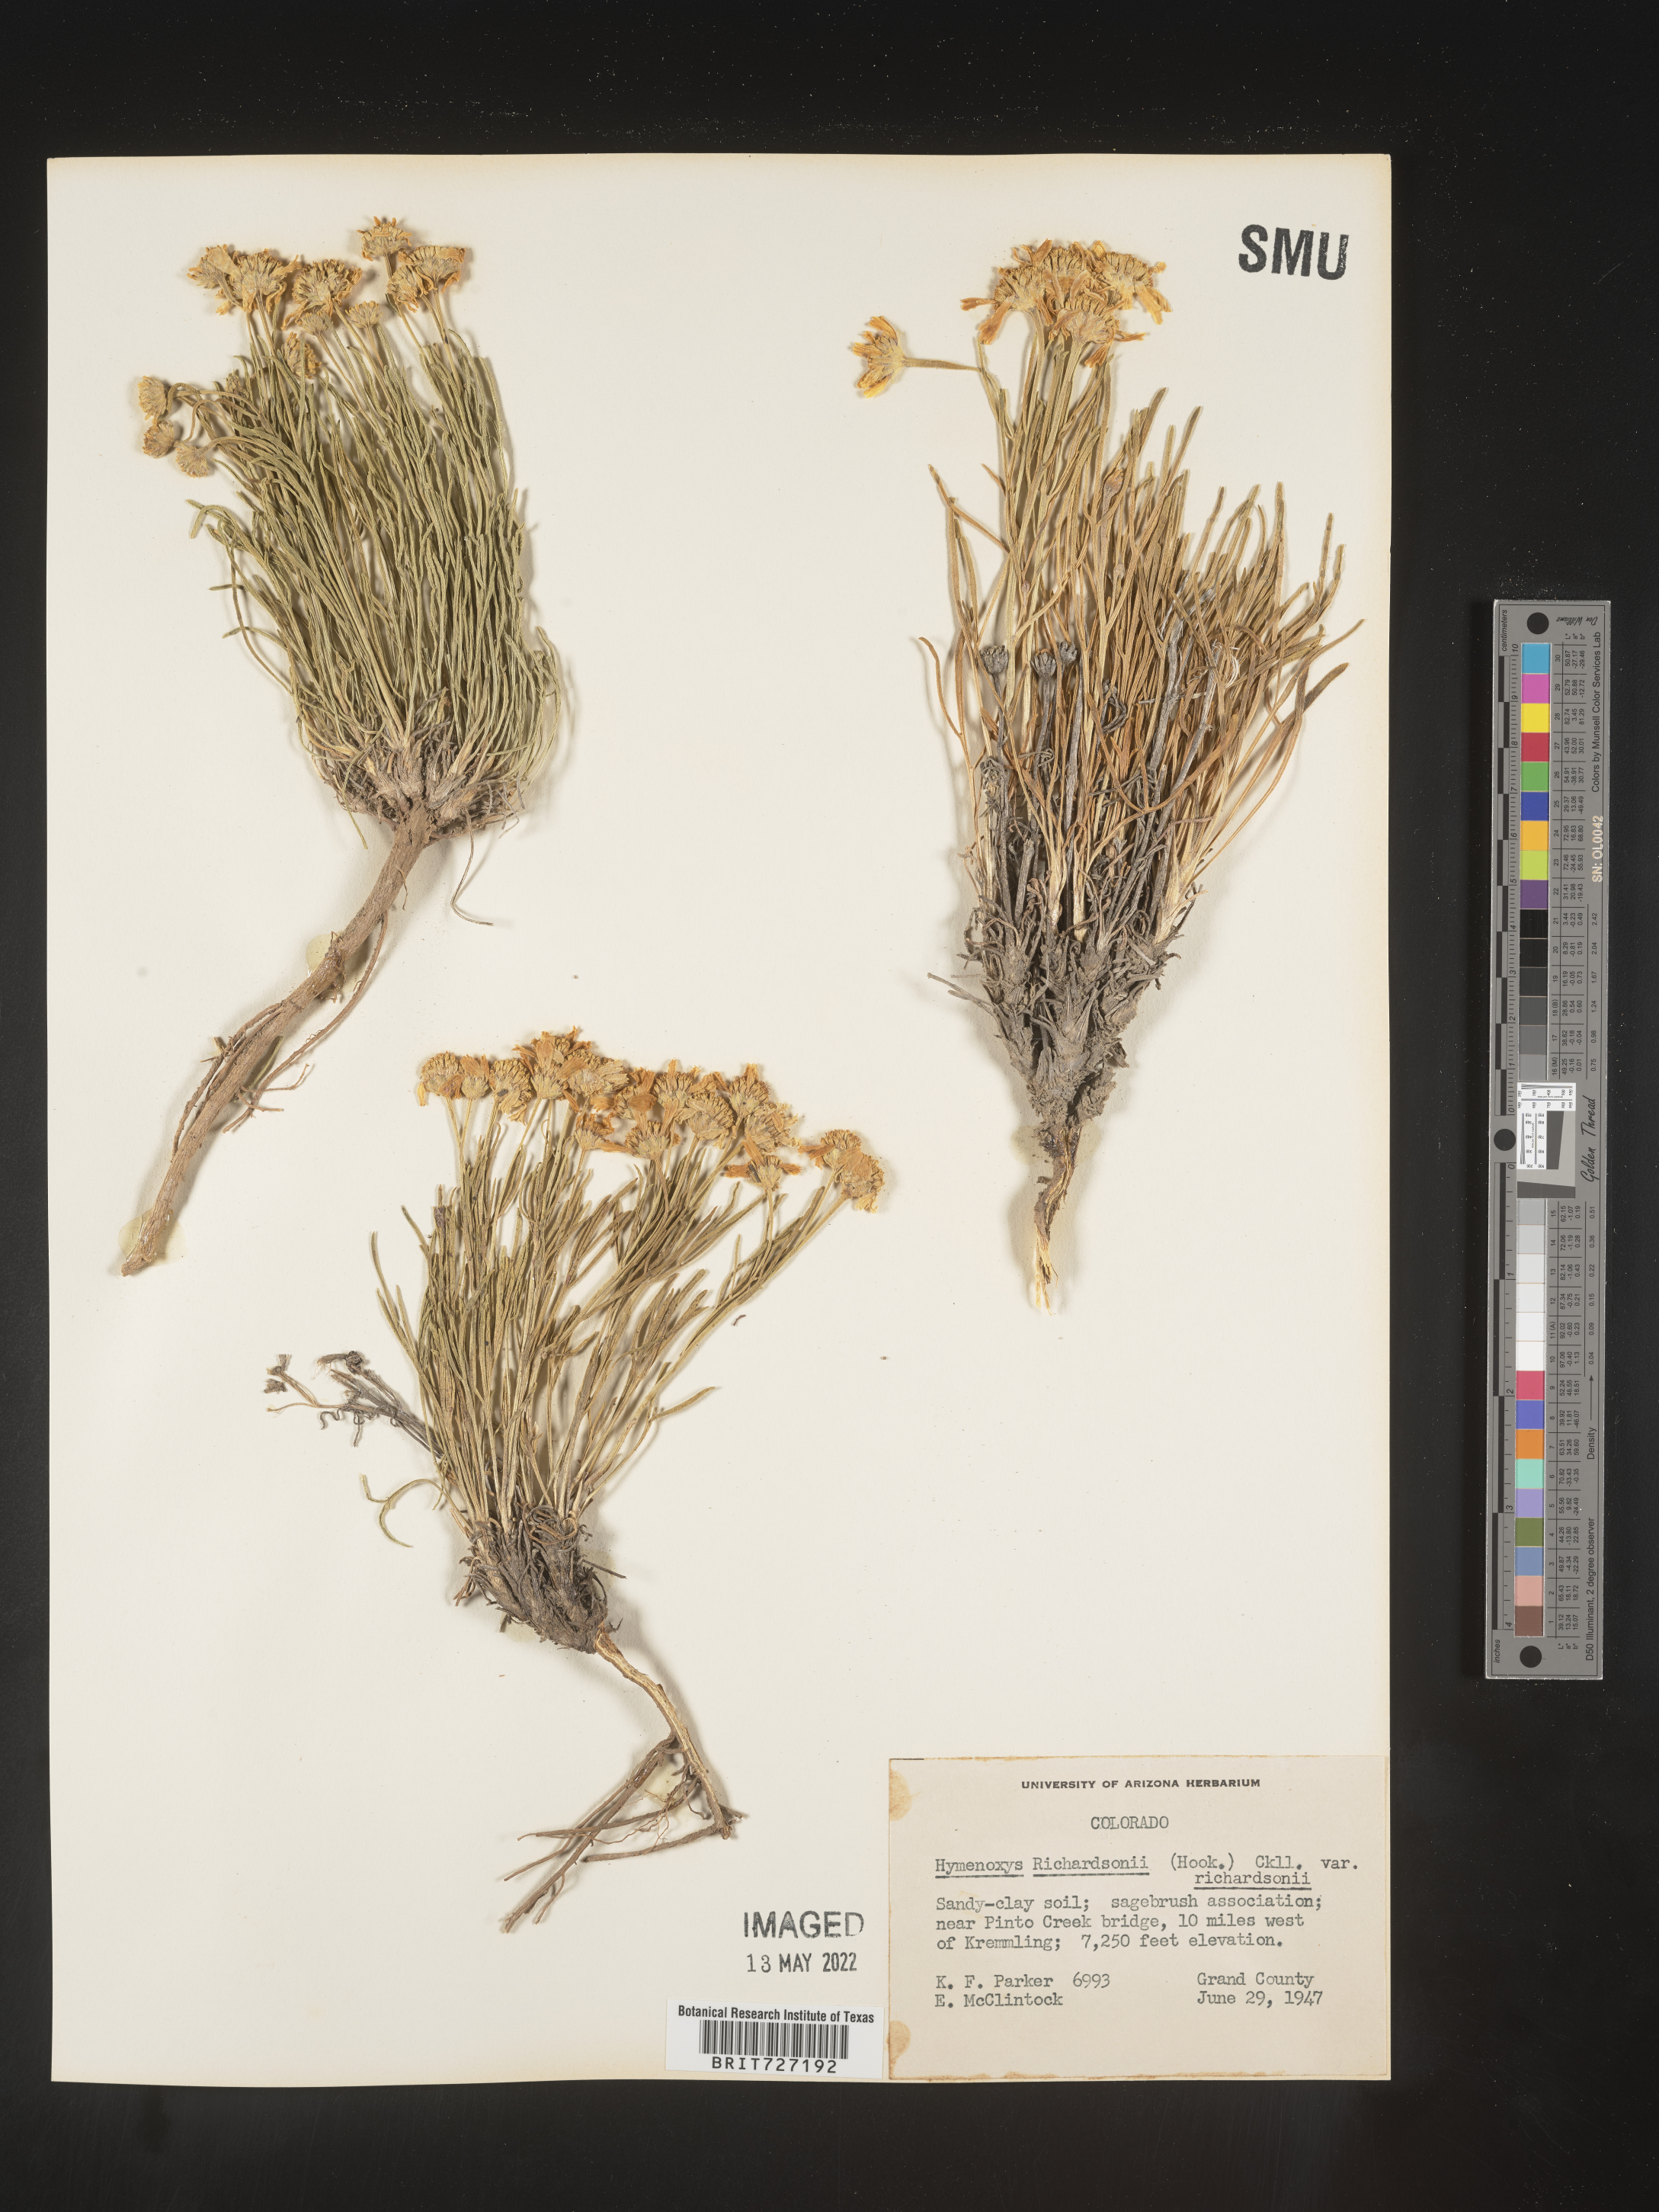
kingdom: Plantae
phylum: Tracheophyta
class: Magnoliopsida
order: Asterales
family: Asteraceae
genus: Hymenoxys
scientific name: Hymenoxys richardsonii
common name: Pingue rubberweed
